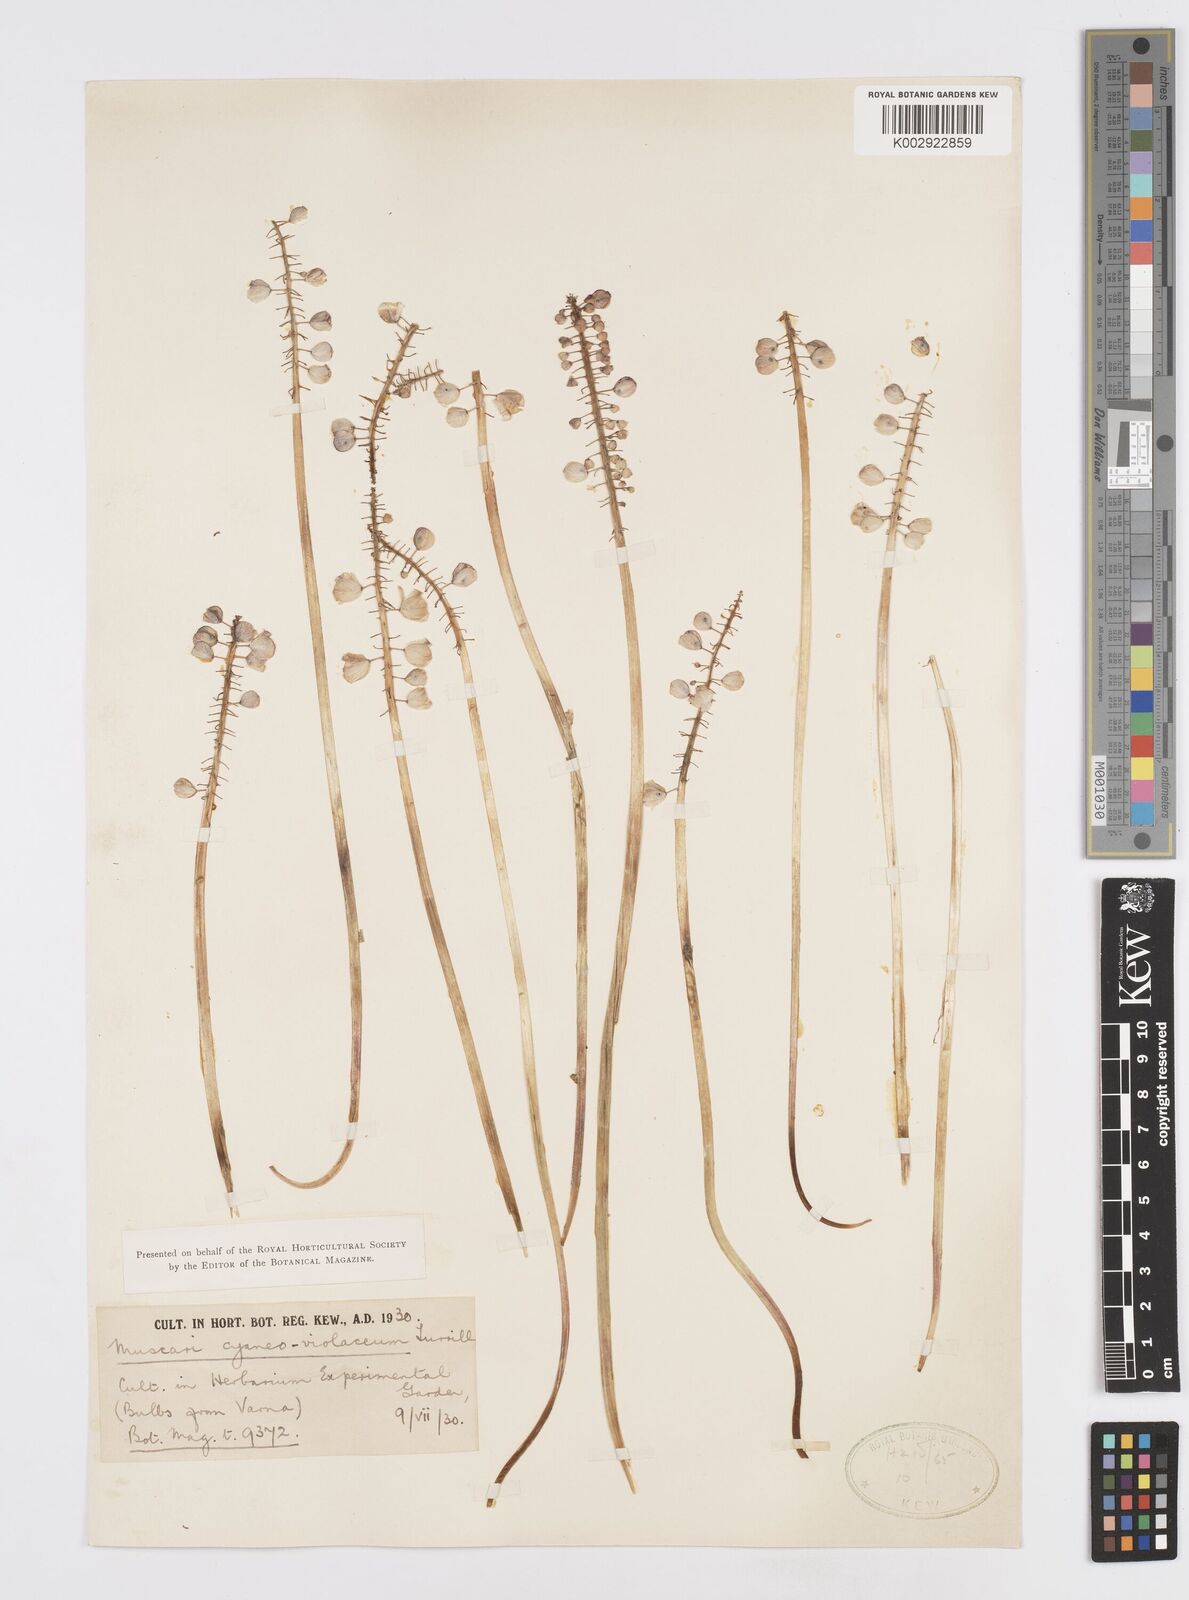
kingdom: Plantae
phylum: Tracheophyta
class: Liliopsida
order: Asparagales
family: Asparagaceae
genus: Muscari
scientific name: Muscari armeniacum
